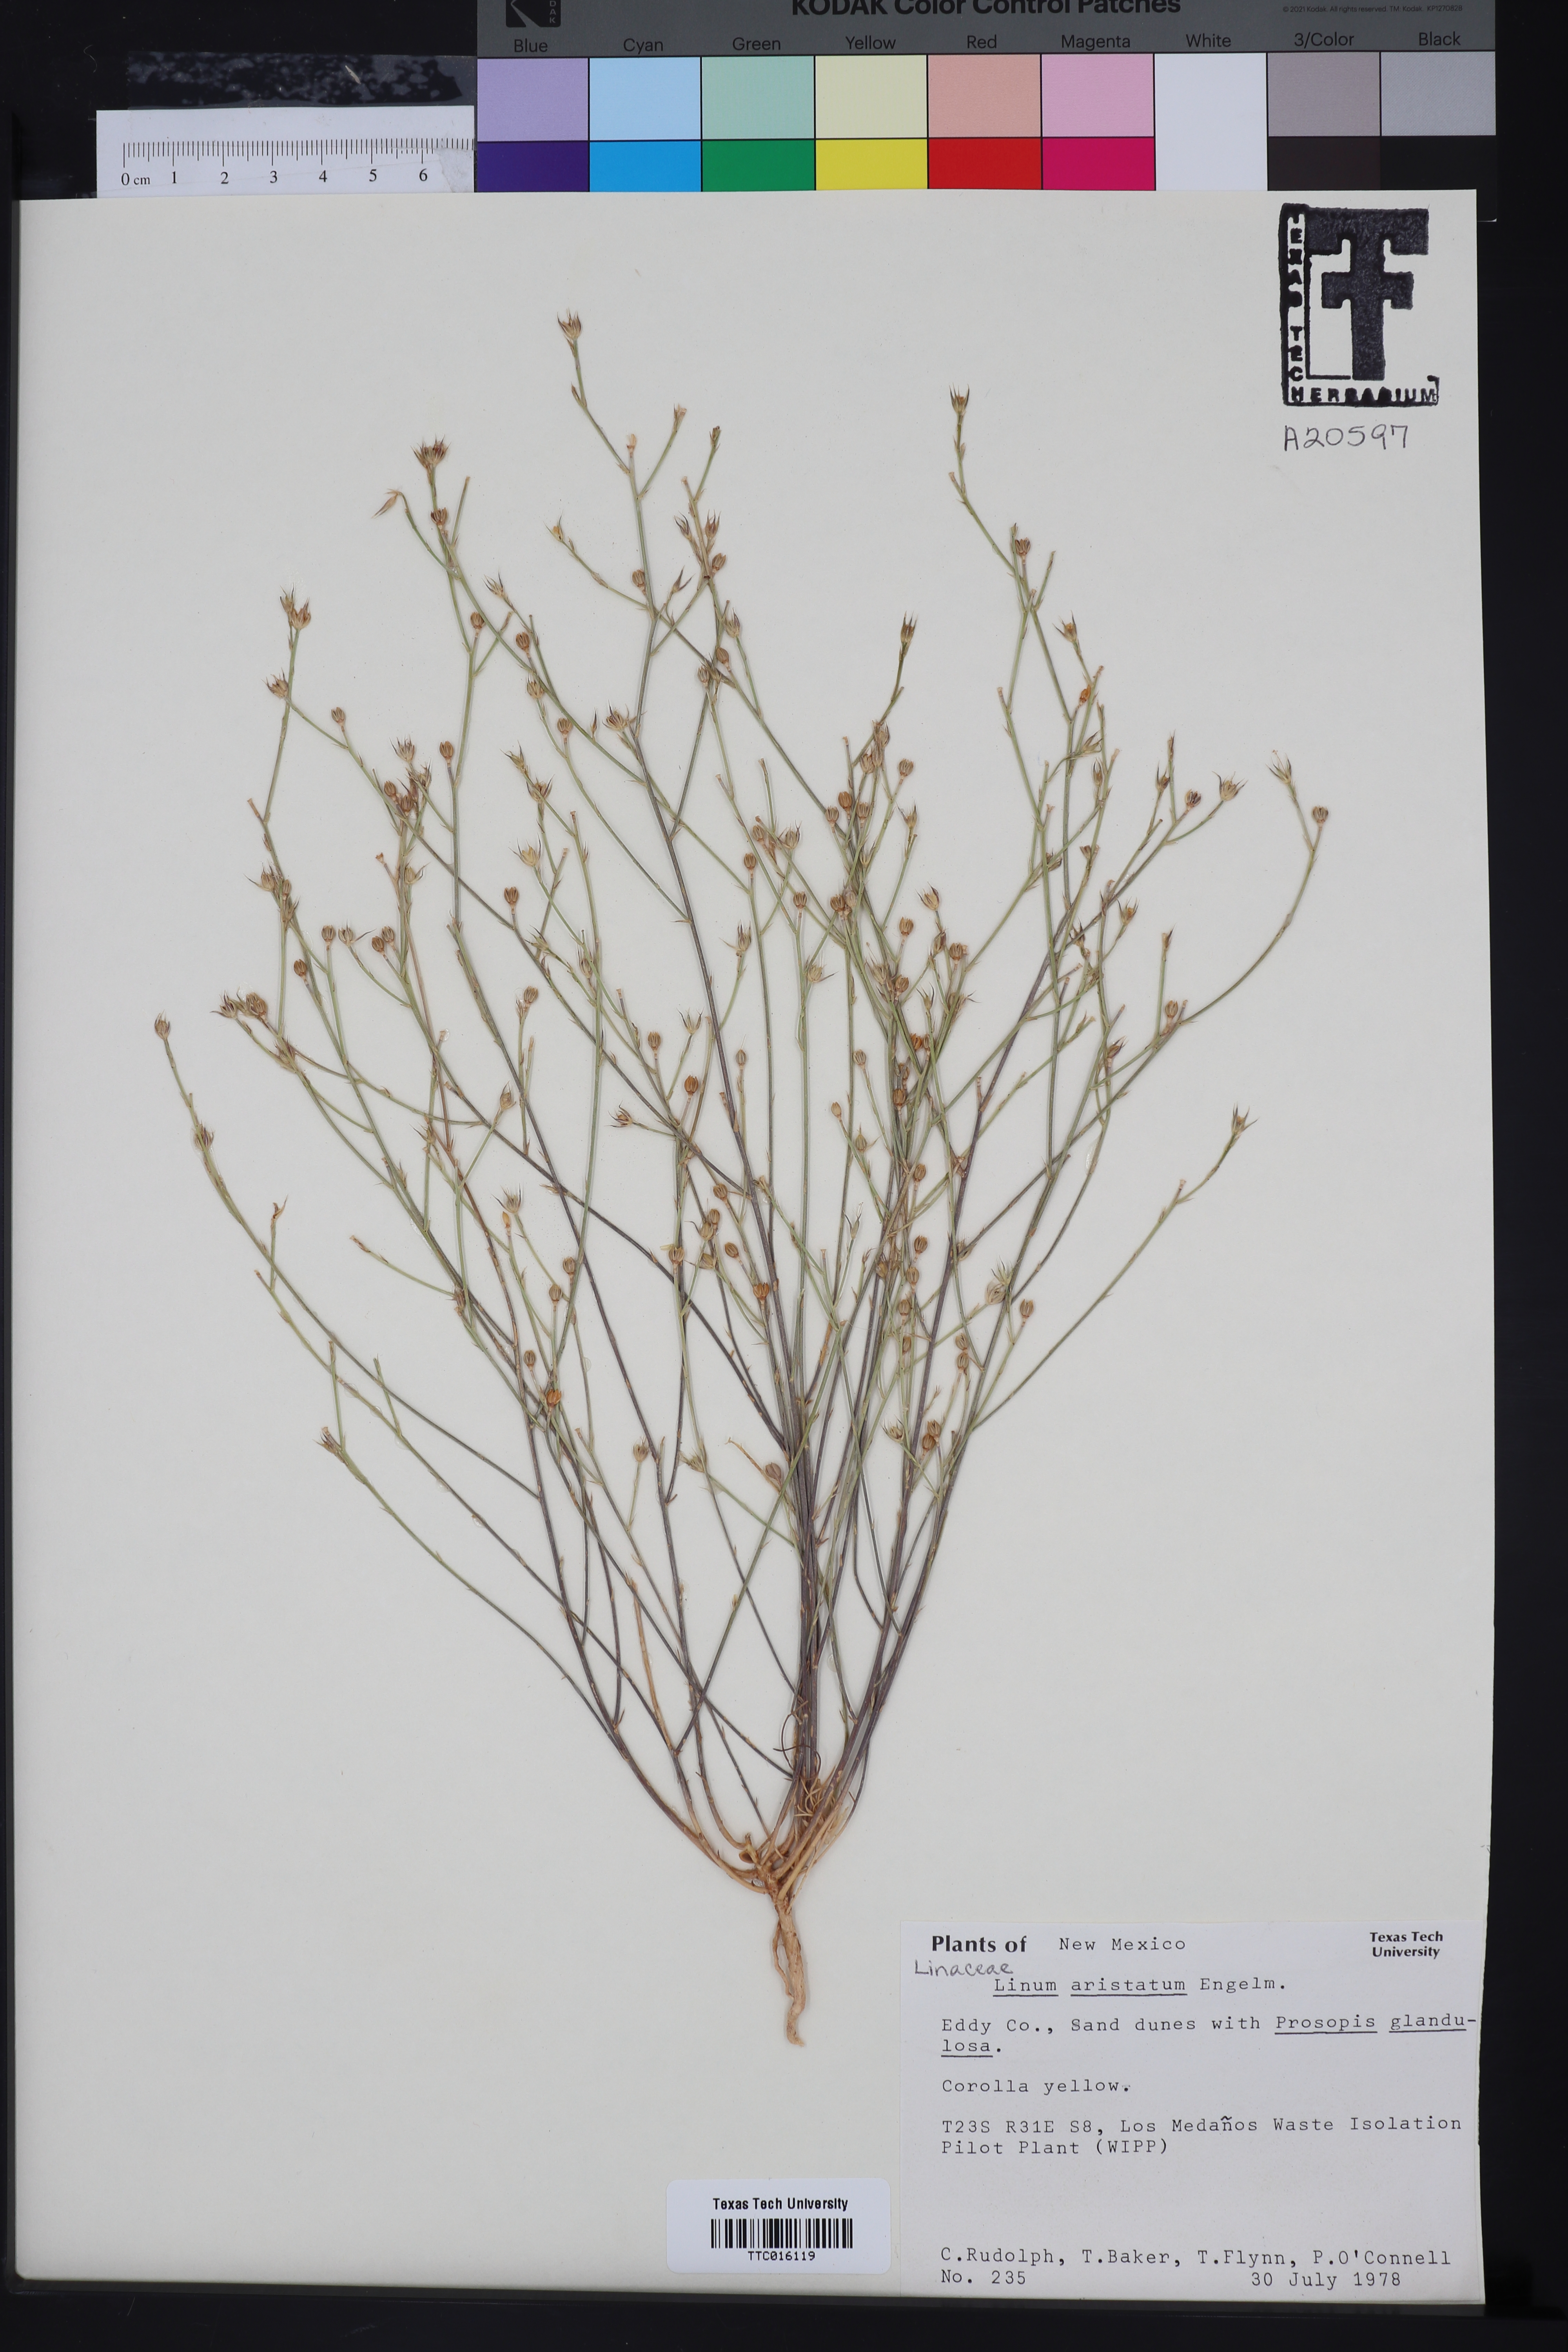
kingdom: Plantae
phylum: Tracheophyta
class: Magnoliopsida
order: Malpighiales
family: Linaceae
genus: Linum
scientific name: Linum aristatum
